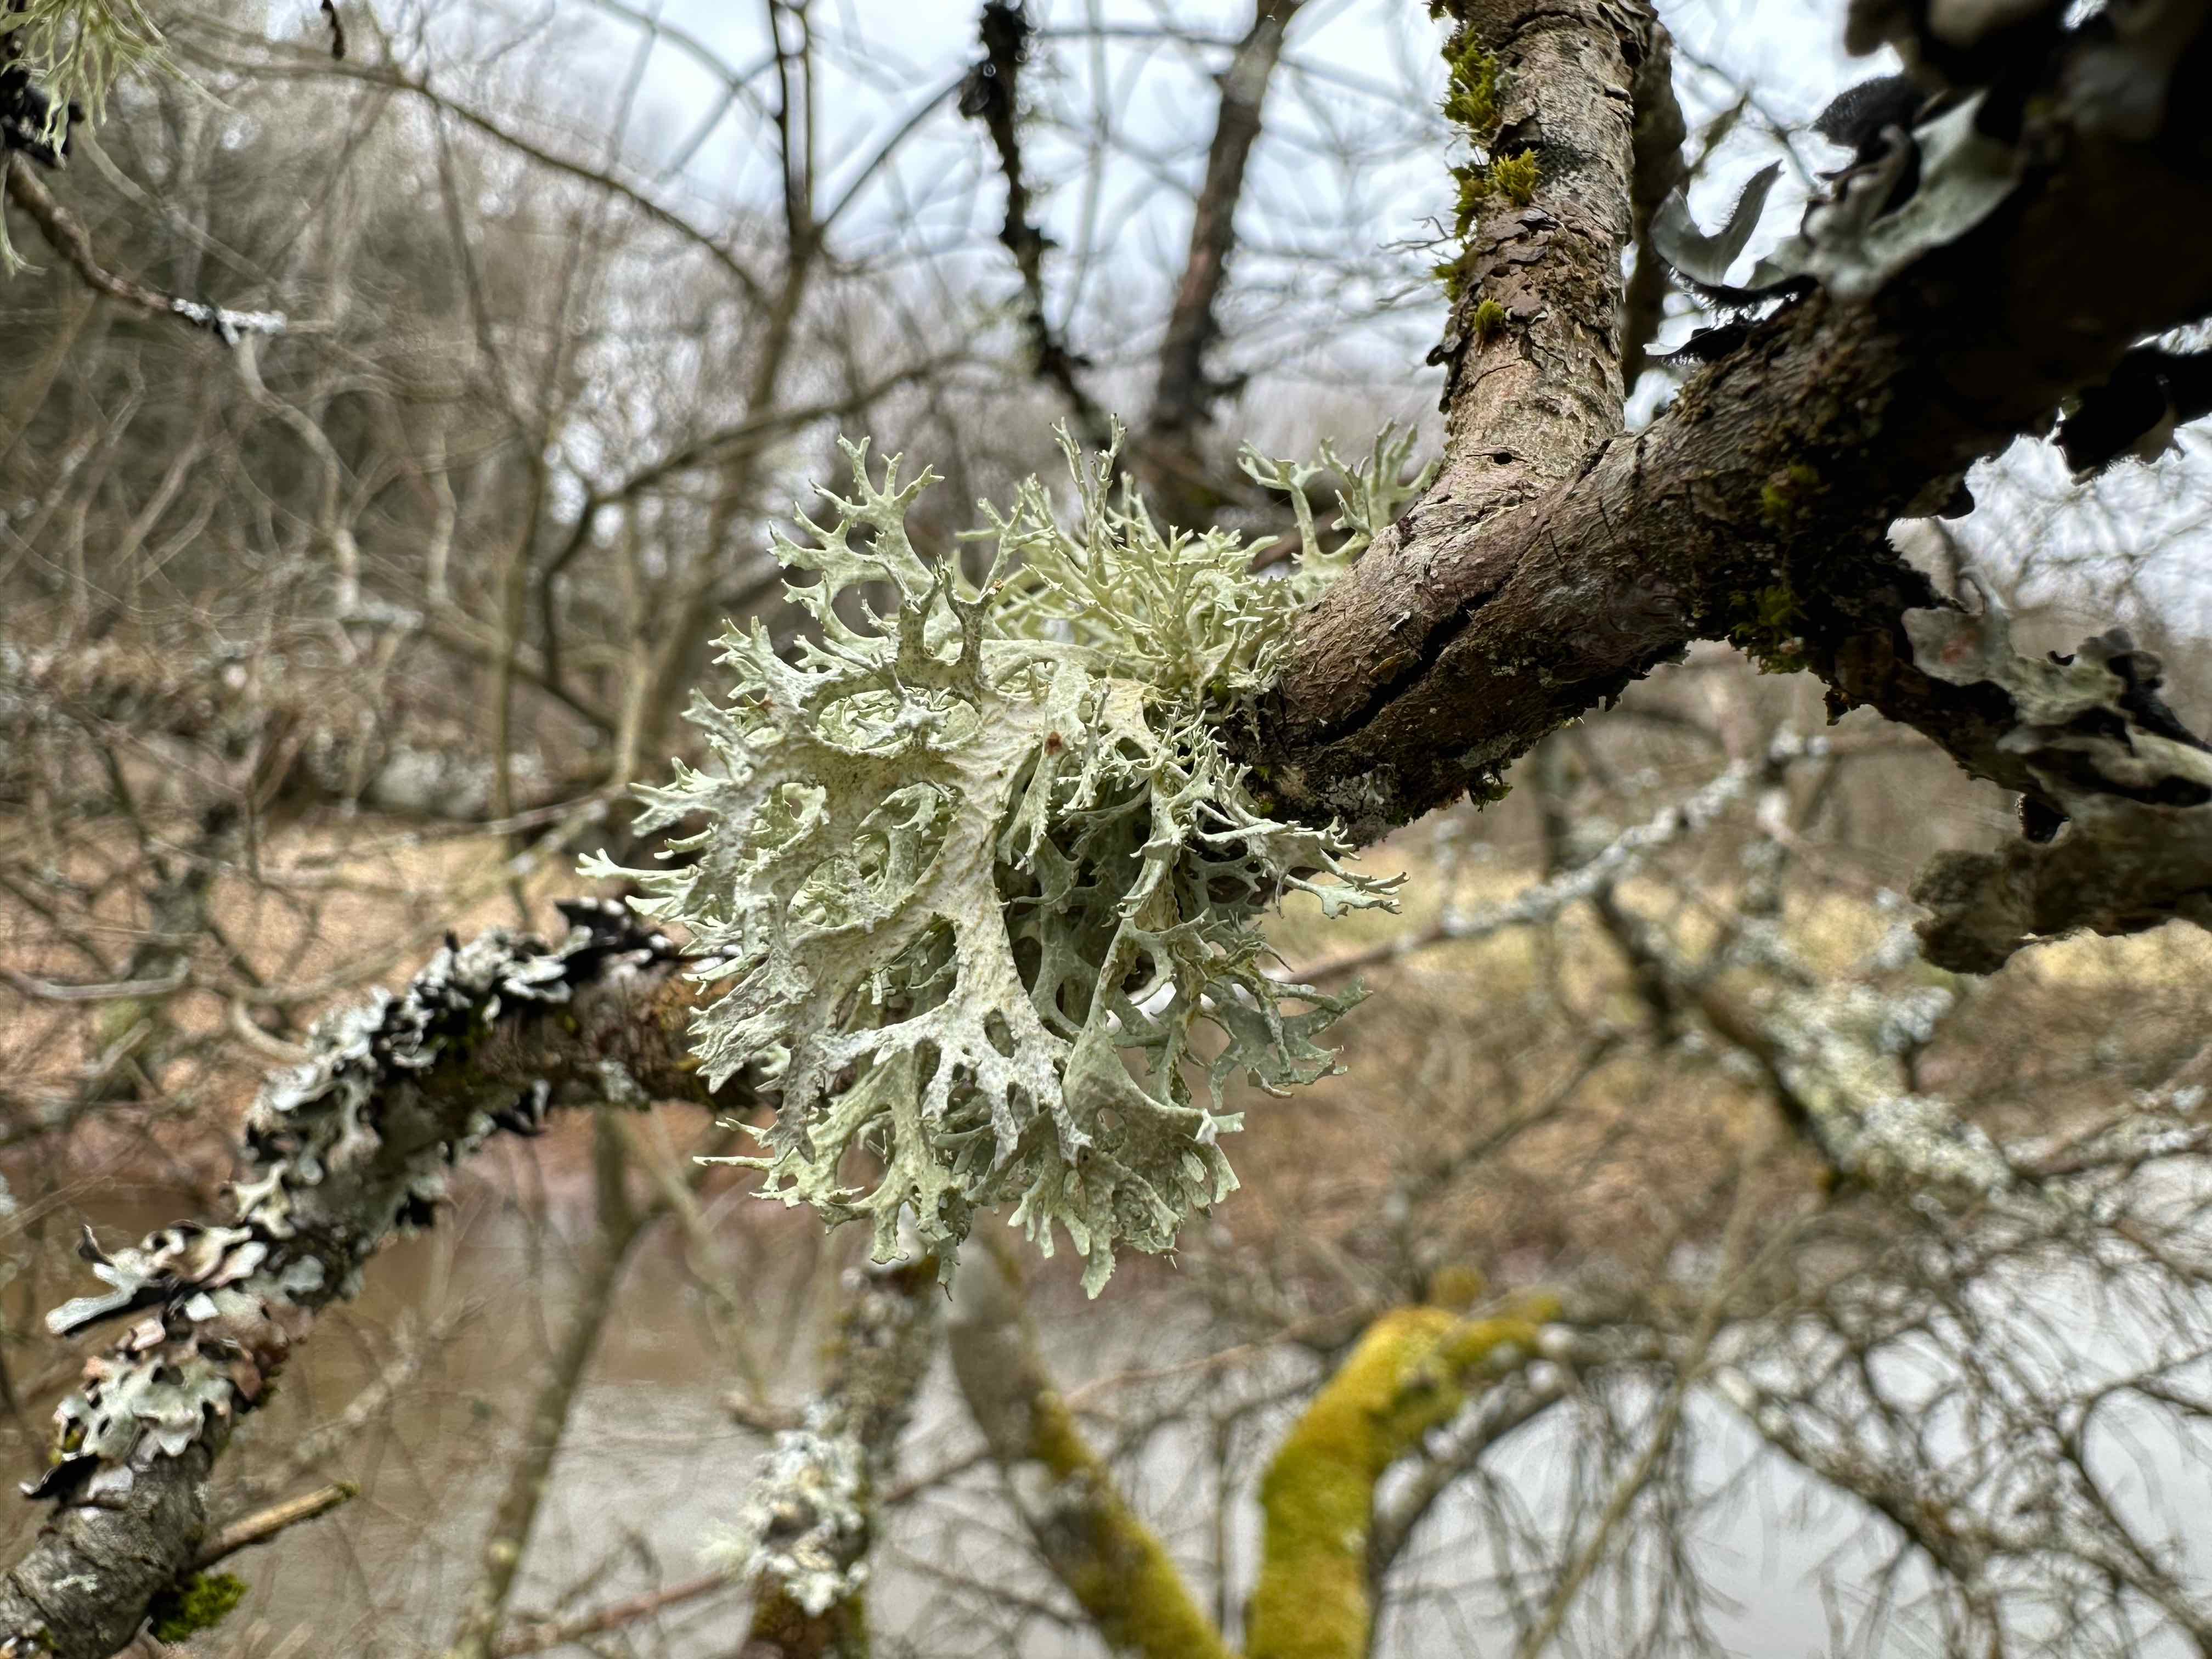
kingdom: Fungi
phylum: Ascomycota
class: Lecanoromycetes
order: Lecanorales
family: Parmeliaceae
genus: Evernia
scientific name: Evernia prunastri
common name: almindelig slåenlav
